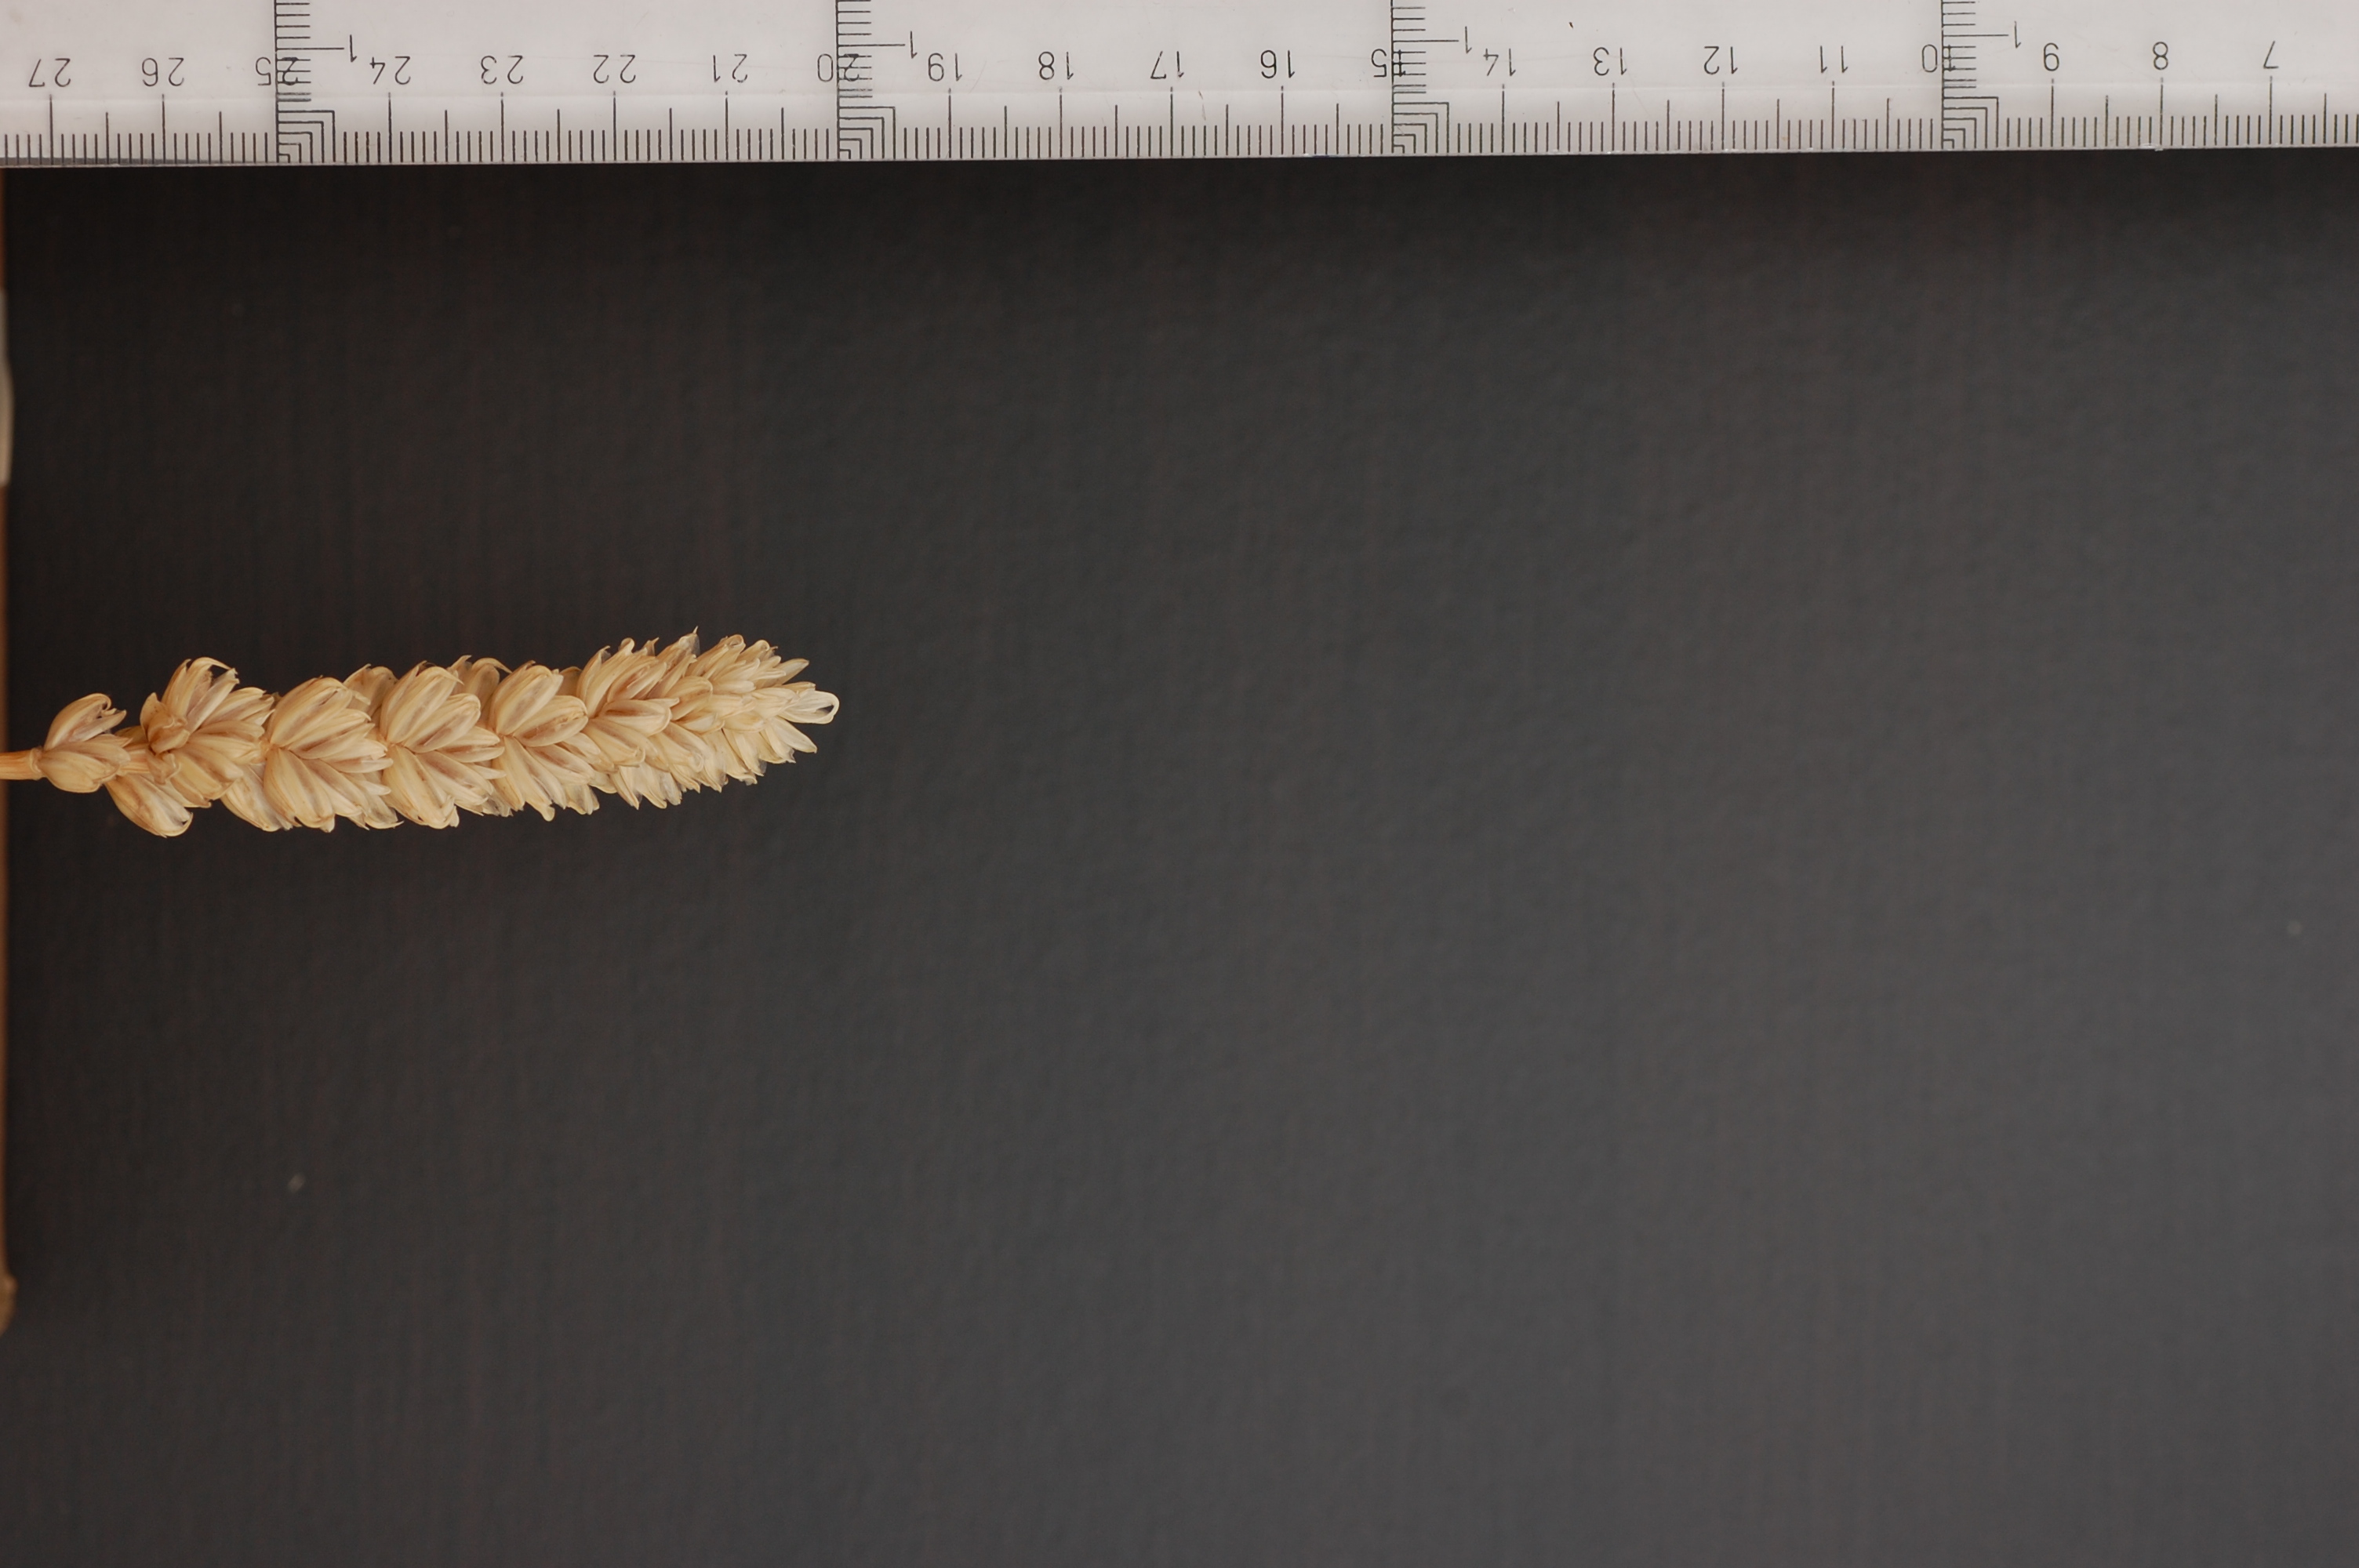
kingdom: Plantae
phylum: Tracheophyta
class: Liliopsida
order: Poales
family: Poaceae
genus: Triticum
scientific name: Triticum aestivum
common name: Common wheat
